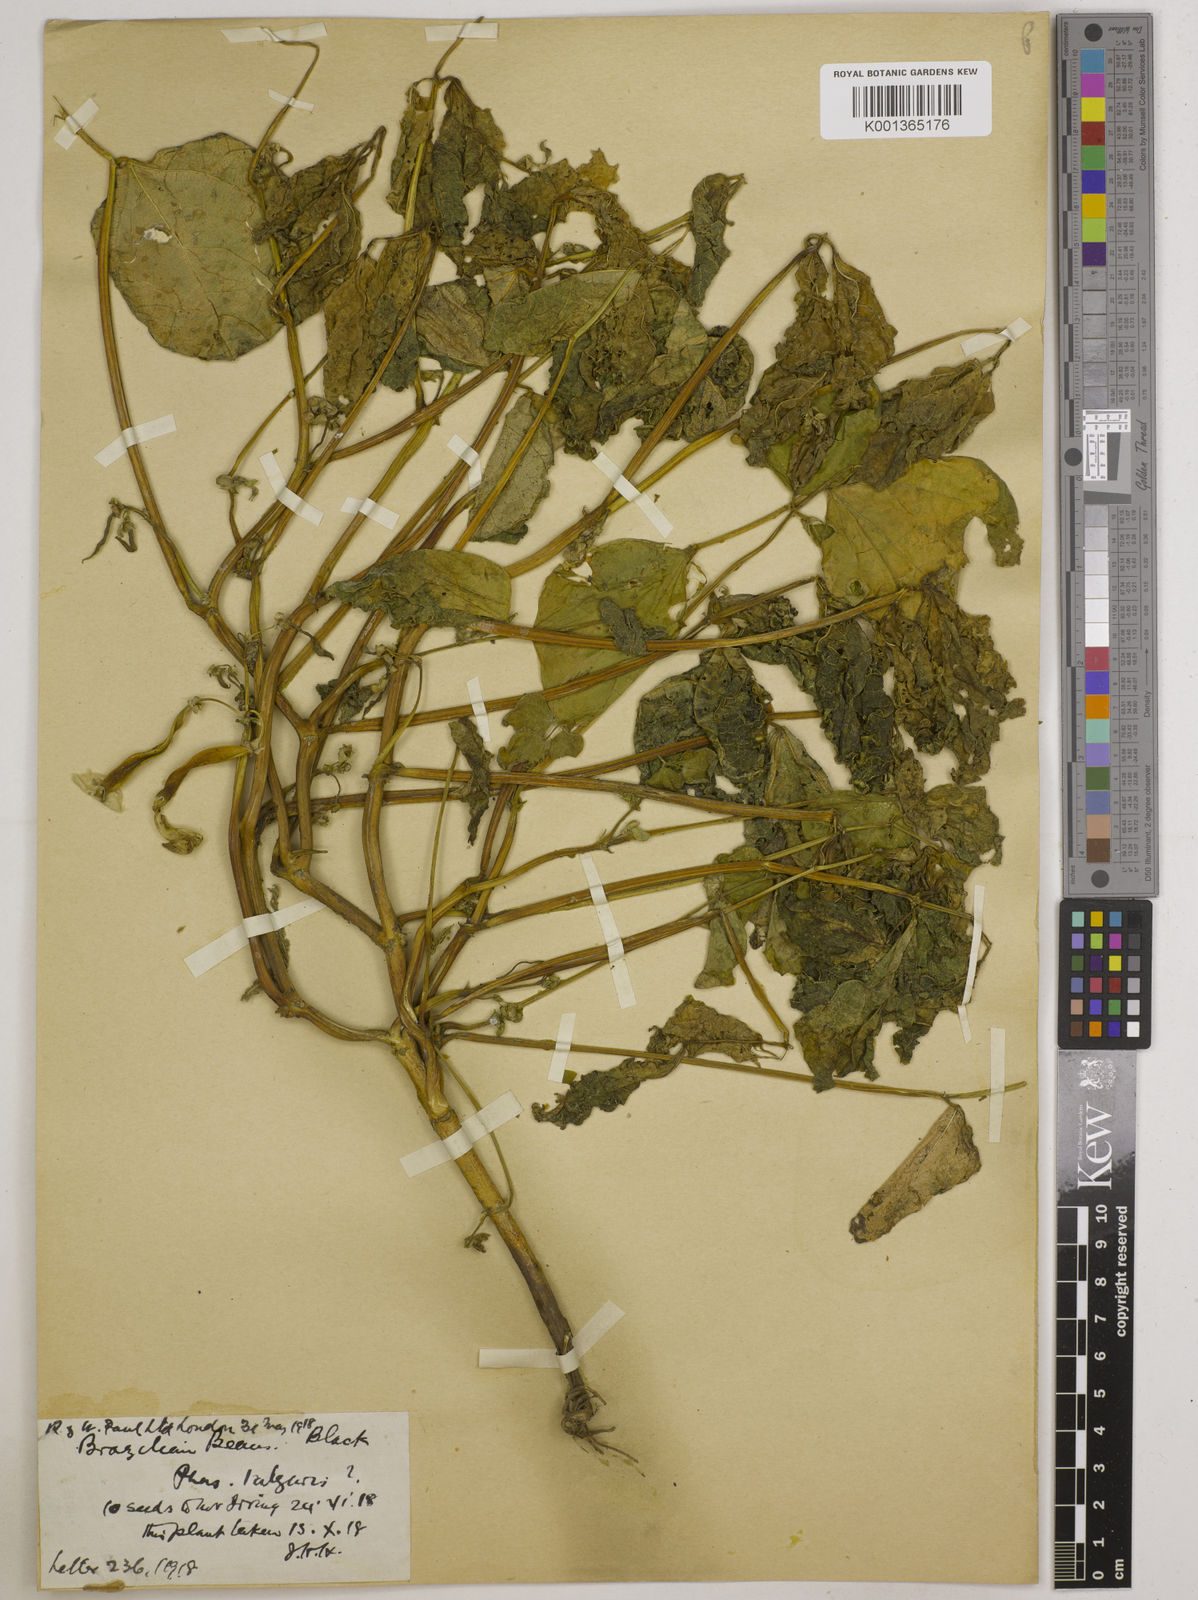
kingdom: Plantae
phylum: Tracheophyta
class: Magnoliopsida
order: Fabales
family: Fabaceae
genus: Phaseolus
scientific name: Phaseolus vulgaris
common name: Bean
